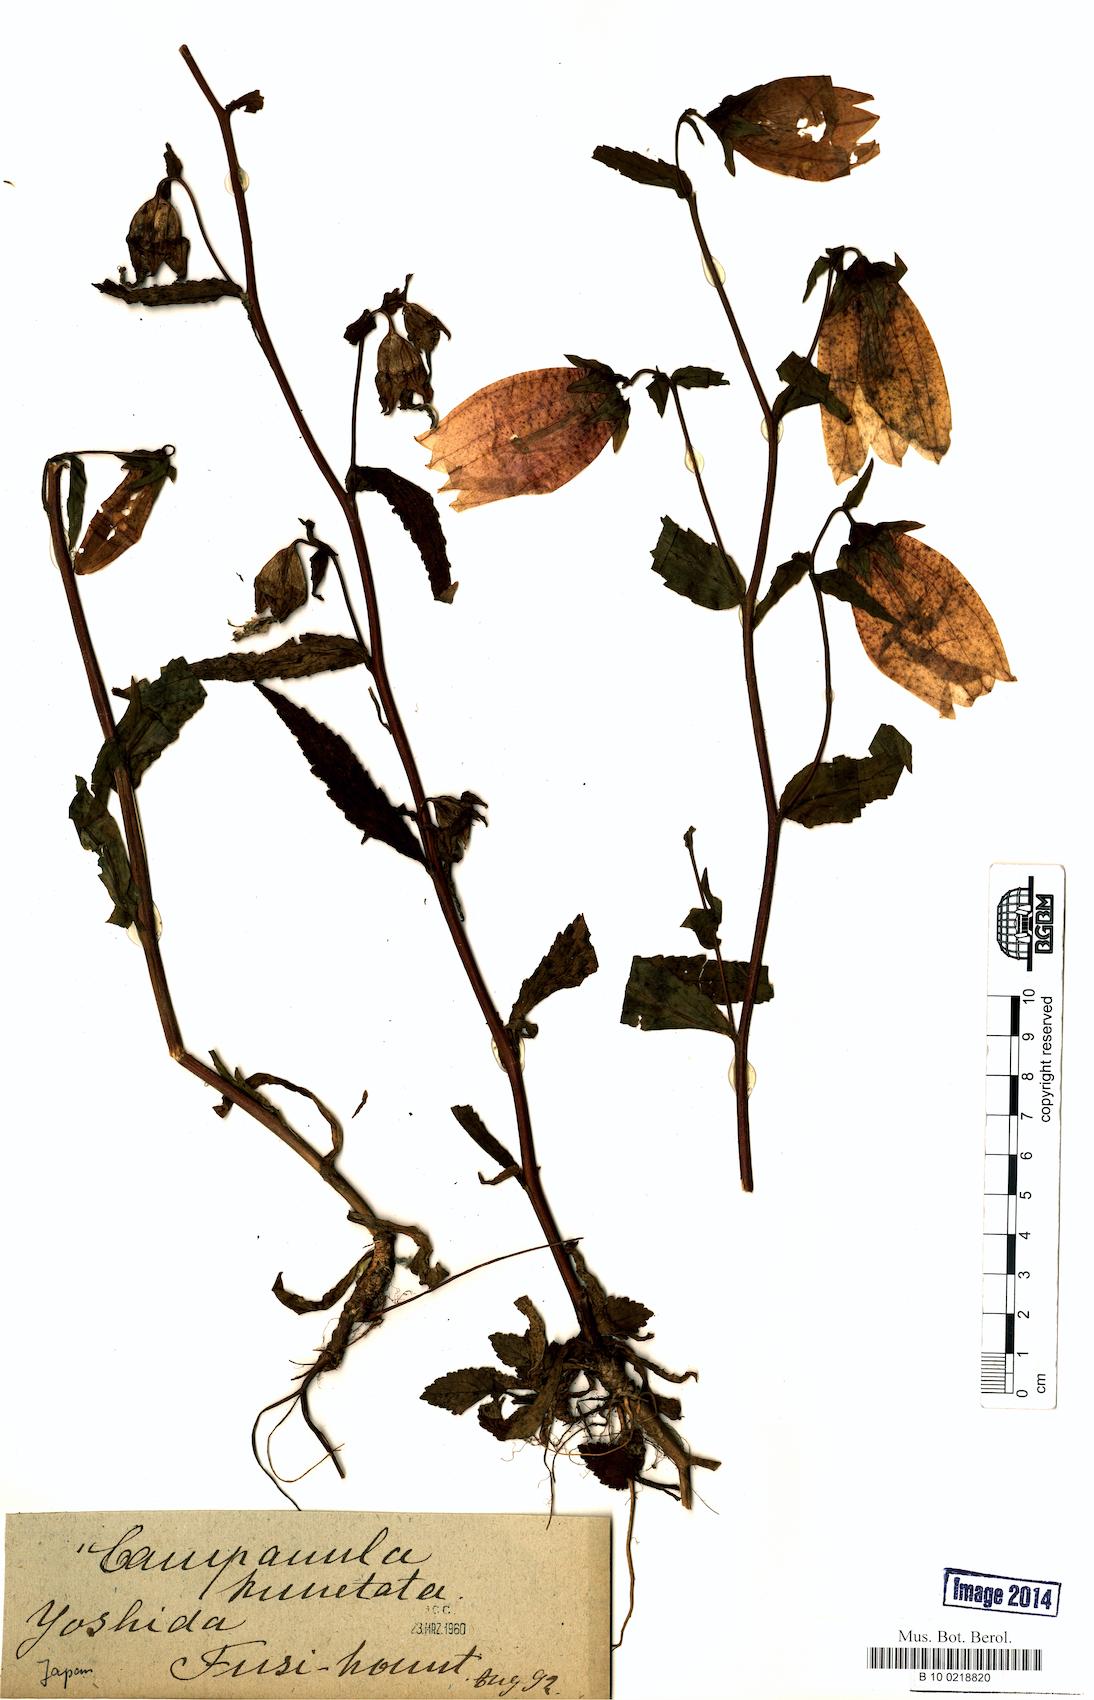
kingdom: Plantae
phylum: Tracheophyta
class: Magnoliopsida
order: Asterales
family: Campanulaceae
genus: Campanula
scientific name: Campanula punctata
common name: Spotted bellflower
